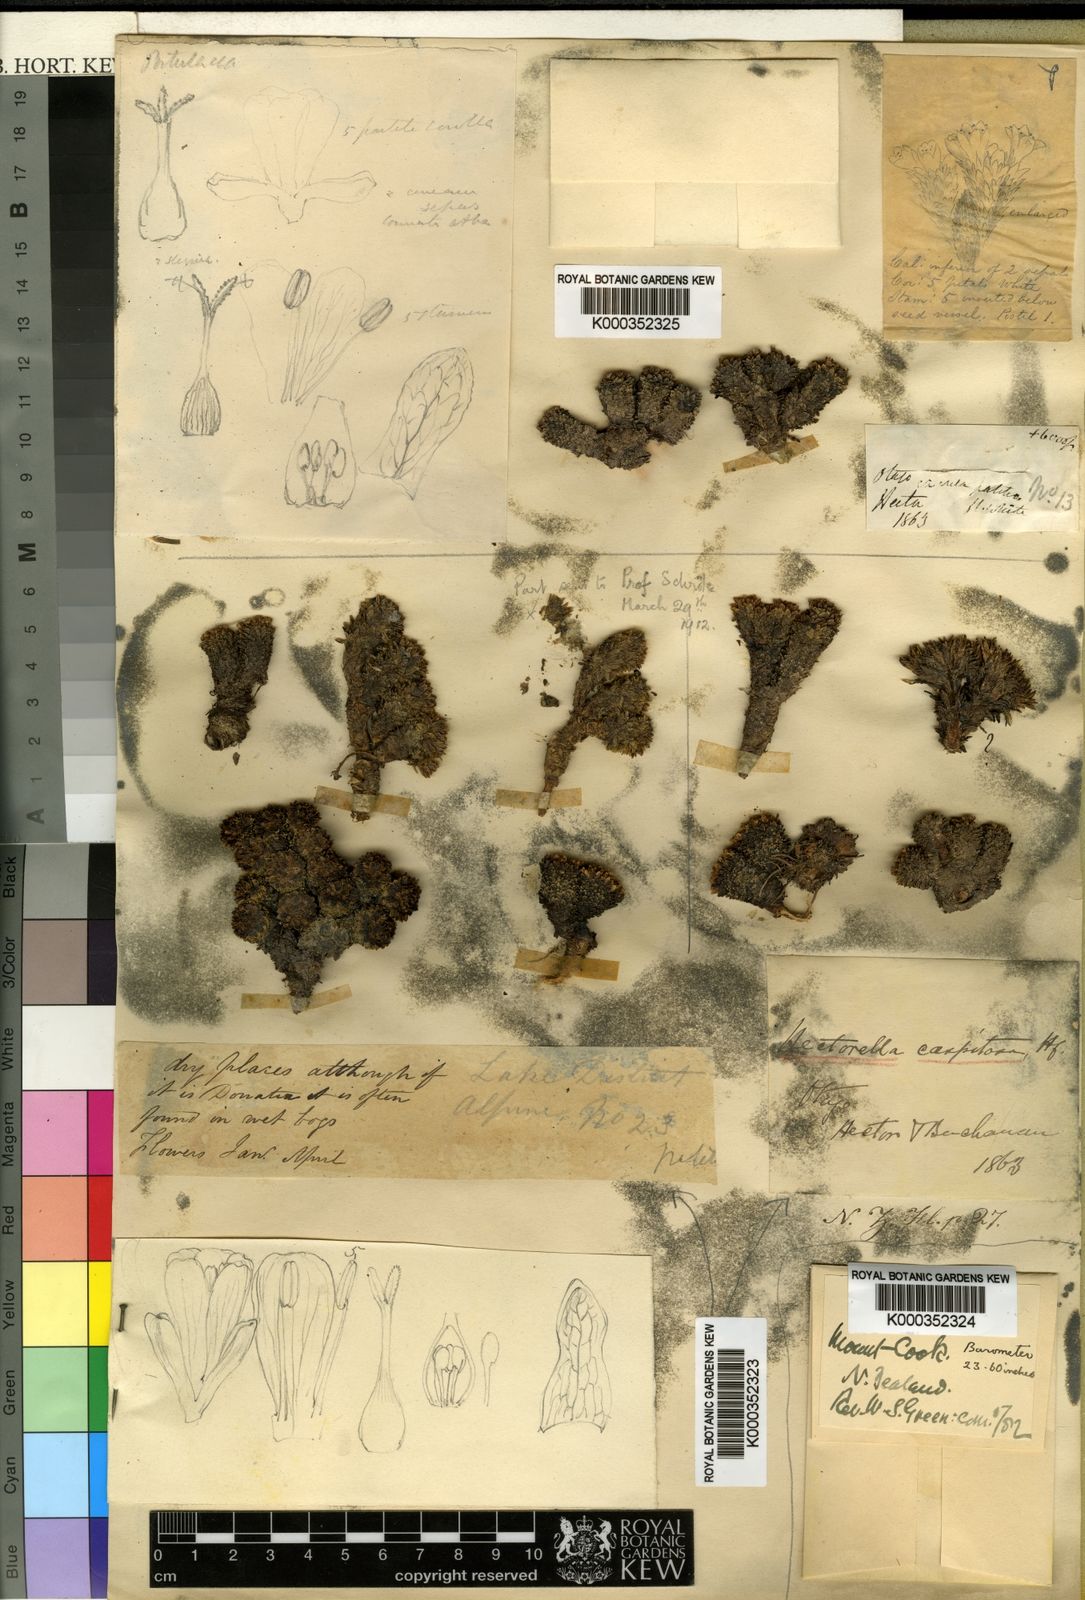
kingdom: Plantae
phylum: Tracheophyta
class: Magnoliopsida
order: Caryophyllales
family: Montiaceae
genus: Hectorella
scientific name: Hectorella caespitosa
